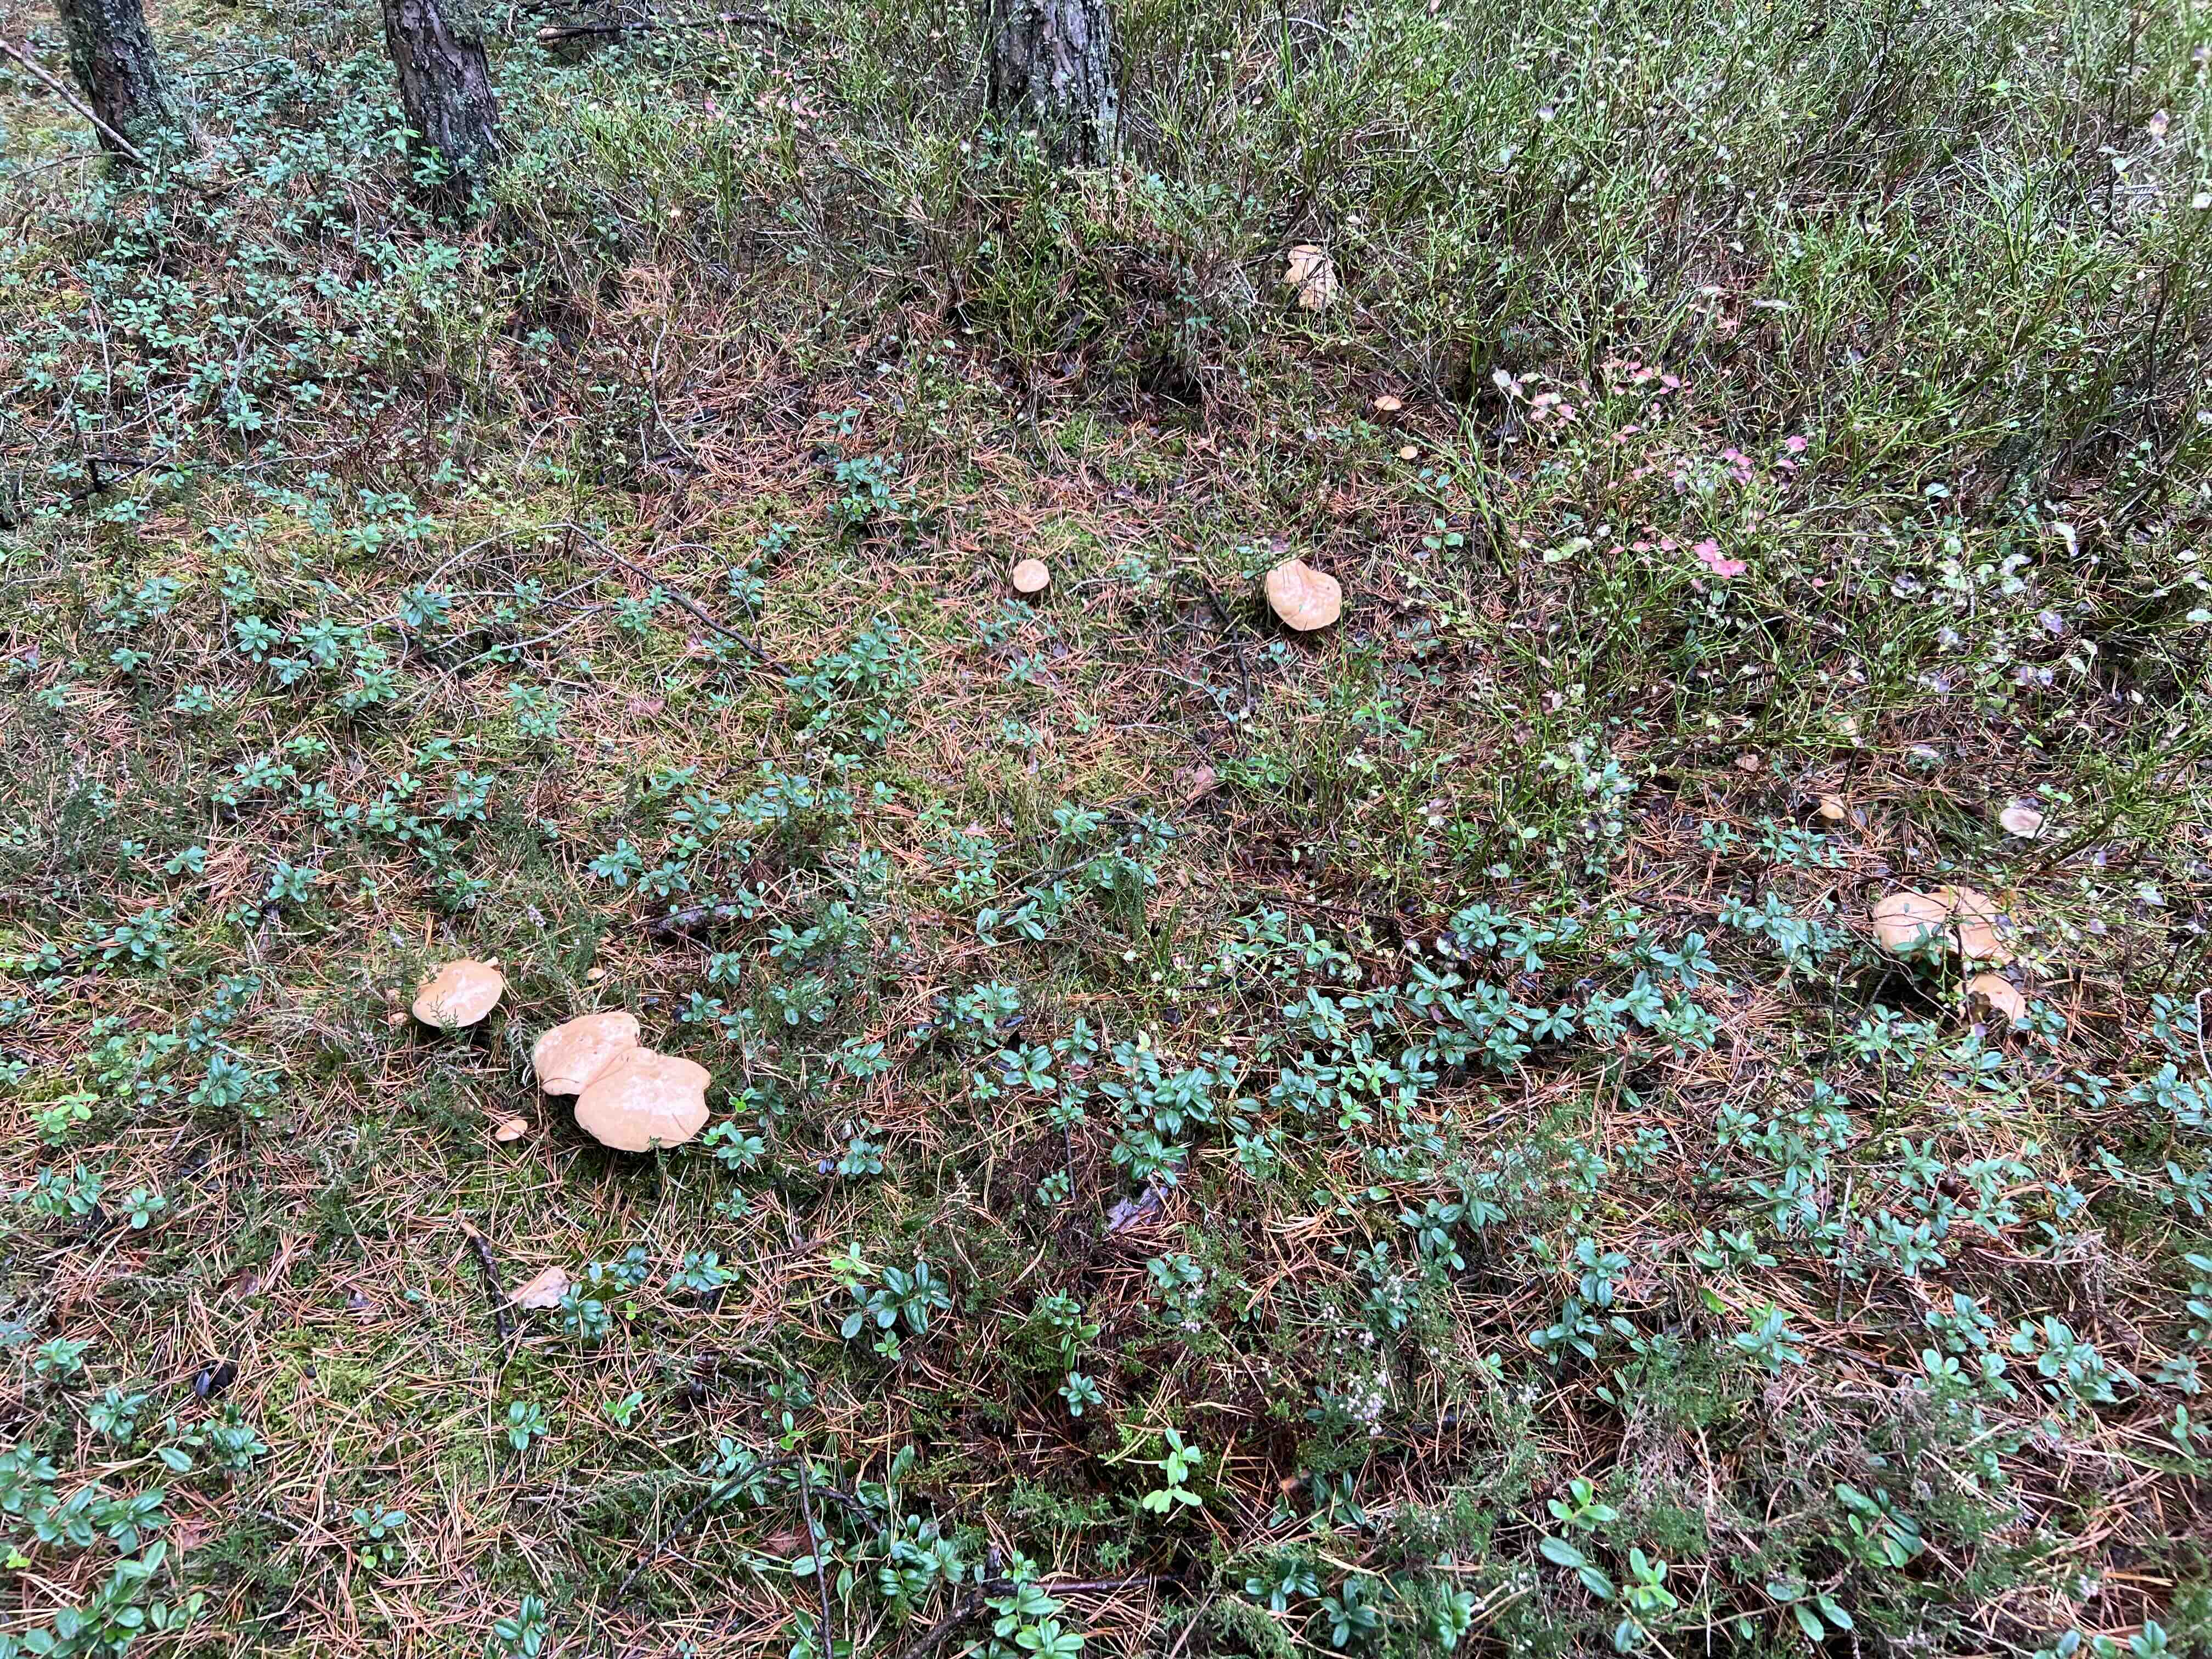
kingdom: Fungi
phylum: Basidiomycota
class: Agaricomycetes
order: Boletales
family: Suillaceae
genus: Suillus
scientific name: Suillus bovinus
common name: grovporet slimrørhat
